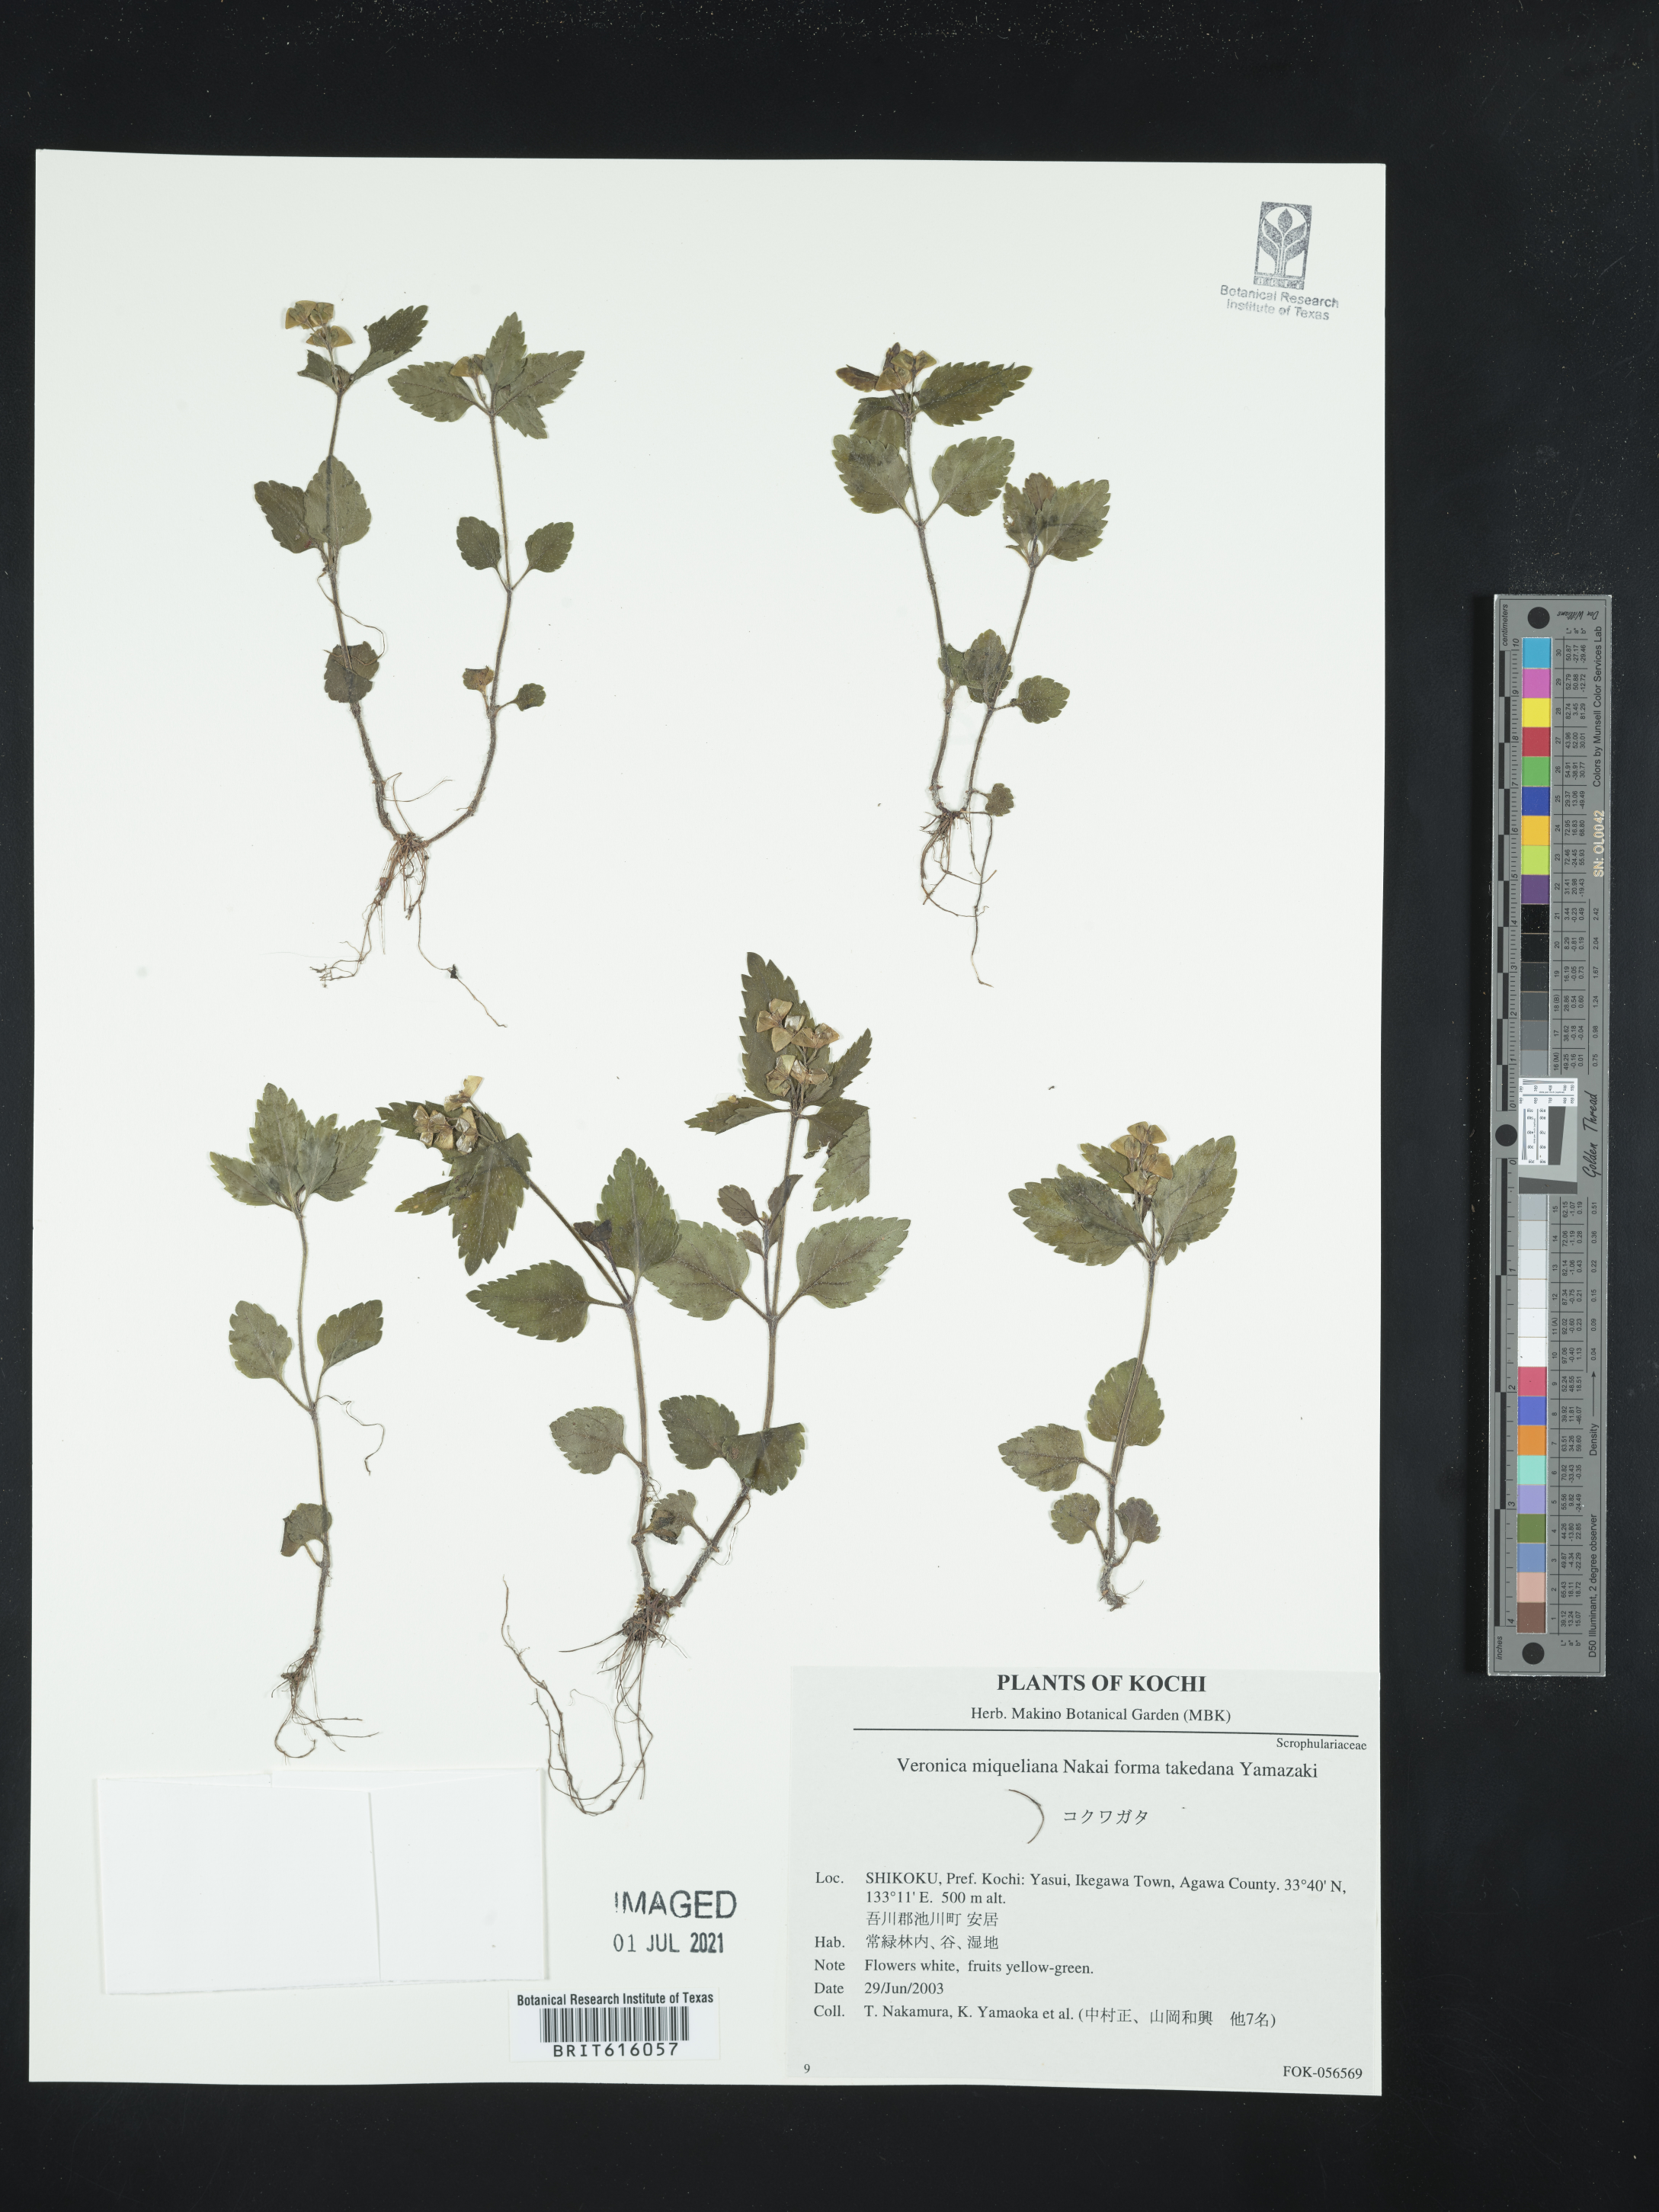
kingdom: Plantae
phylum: Tracheophyta
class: Magnoliopsida
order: Lamiales
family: Plantaginaceae
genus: Veronica
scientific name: Veronica miqueliana
